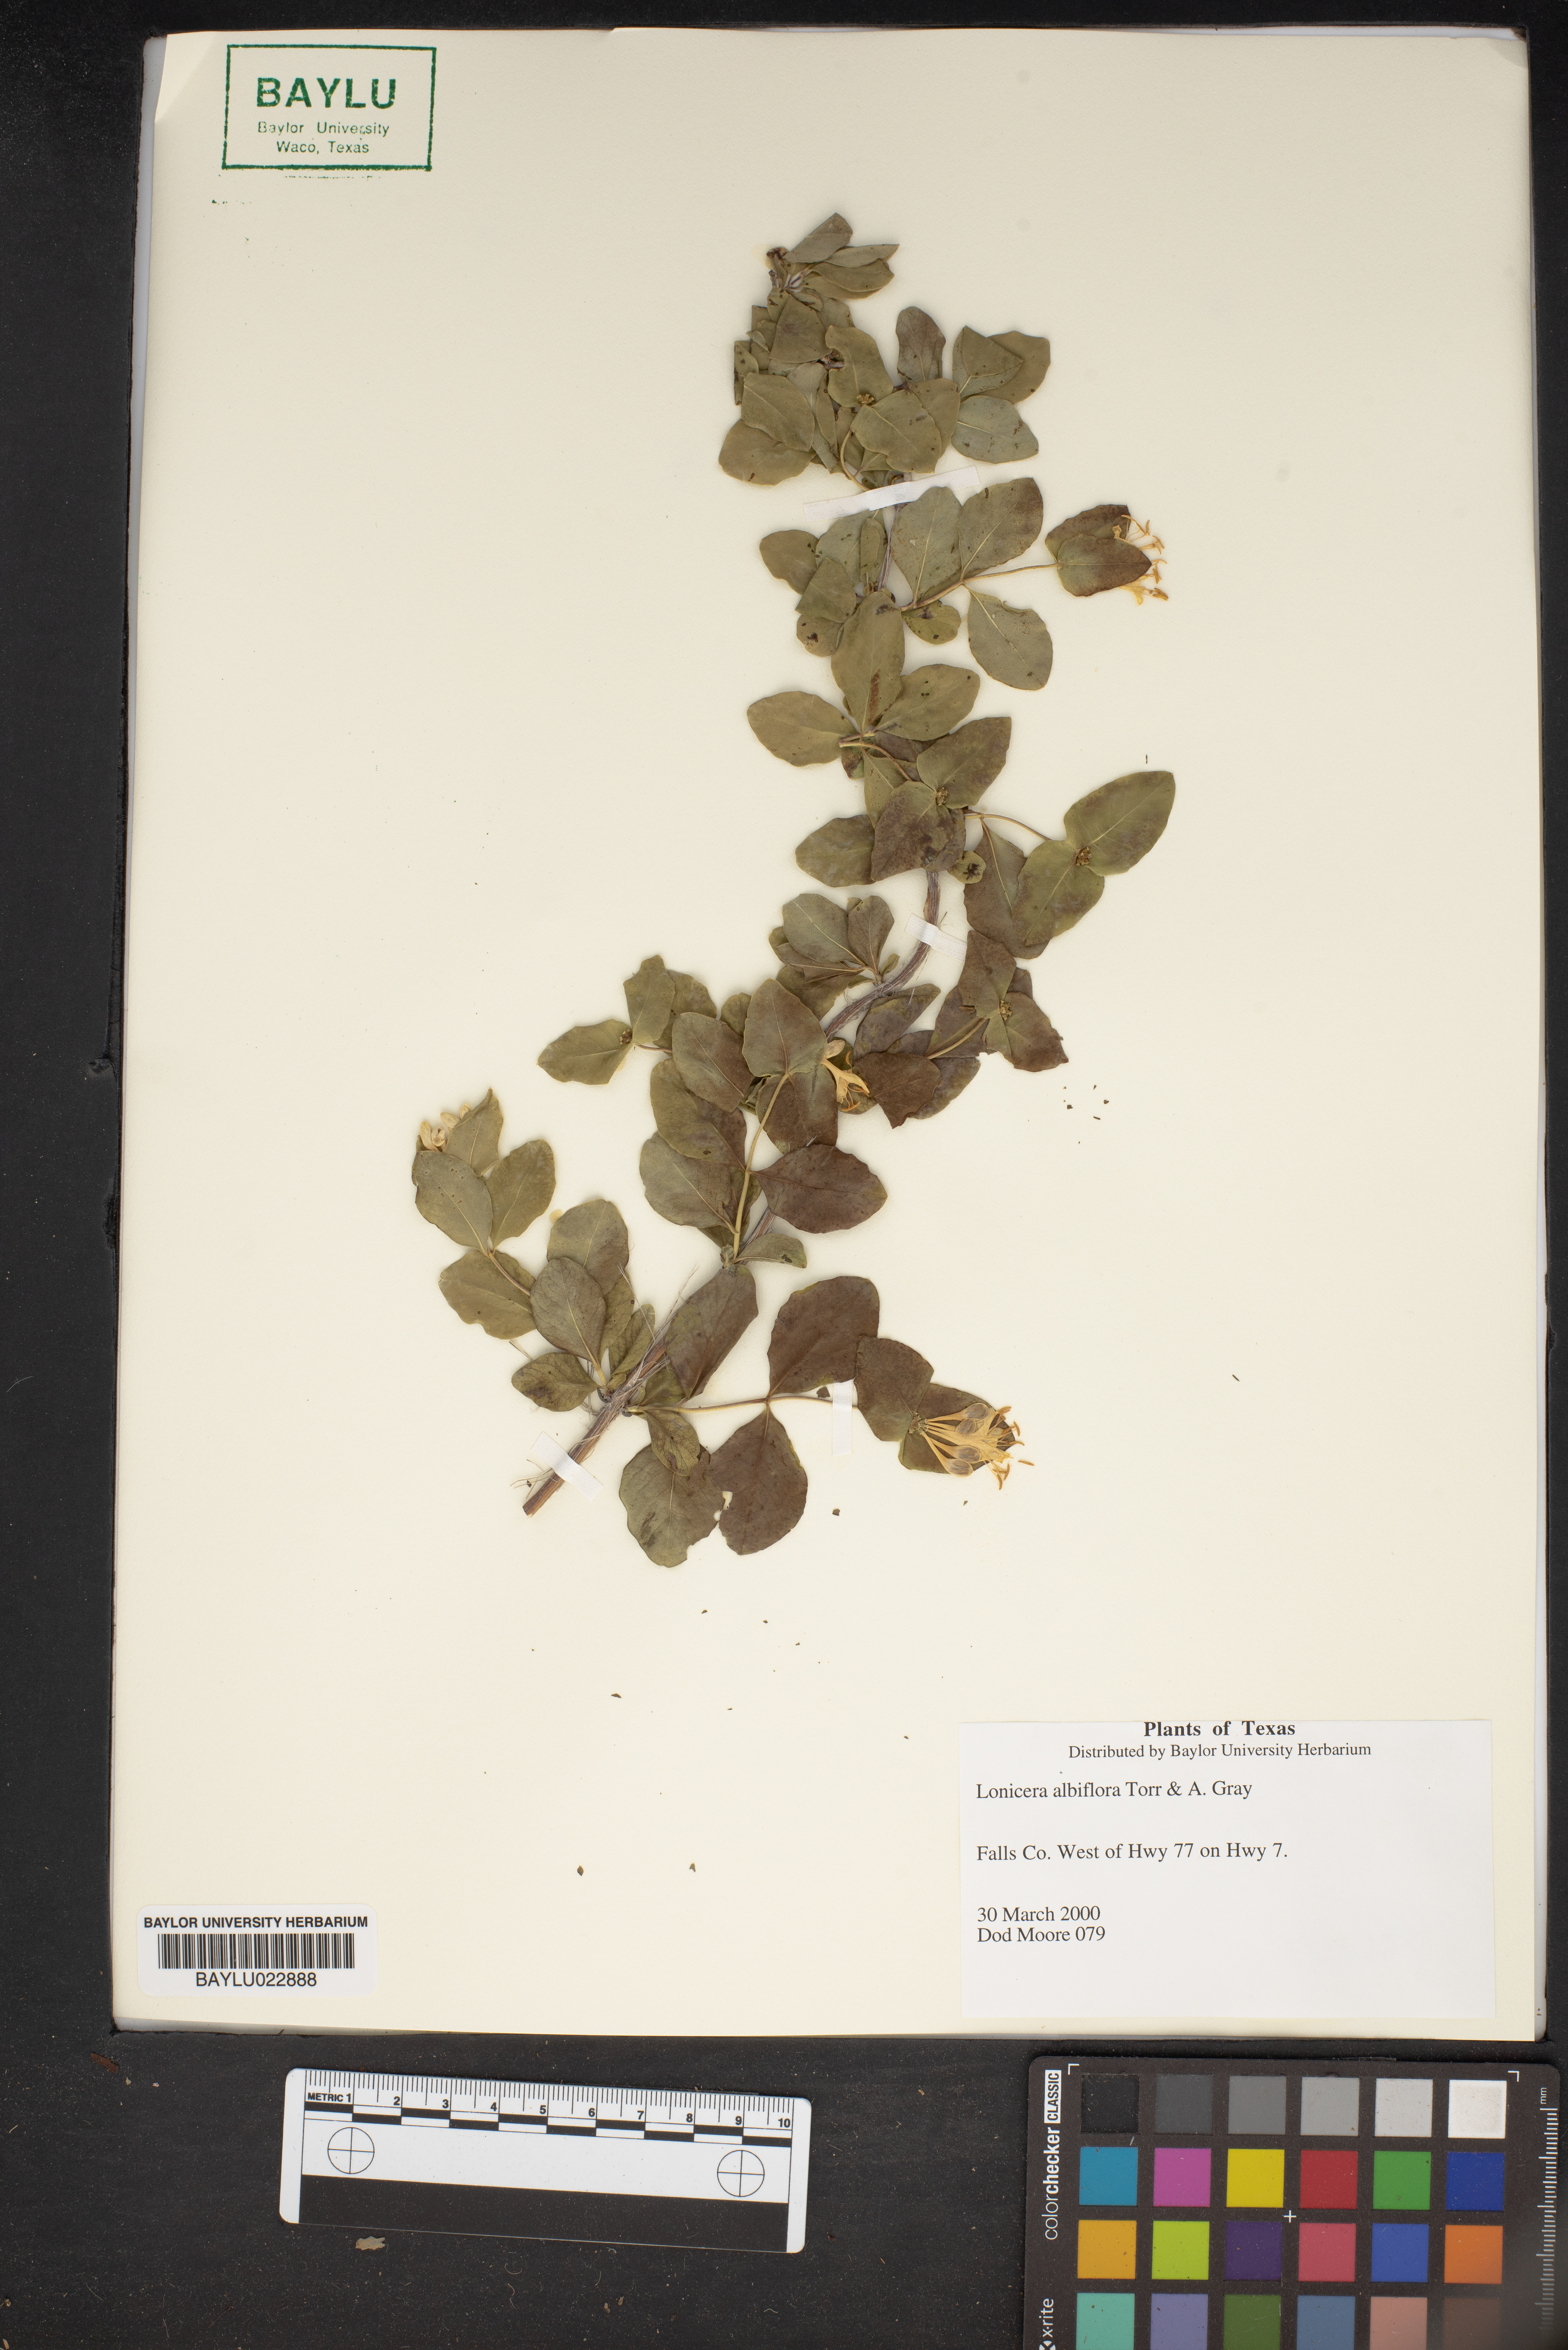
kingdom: Plantae
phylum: Tracheophyta
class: Magnoliopsida
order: Dipsacales
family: Caprifoliaceae
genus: Lonicera
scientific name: Lonicera albiflora
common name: White honeysuckle
